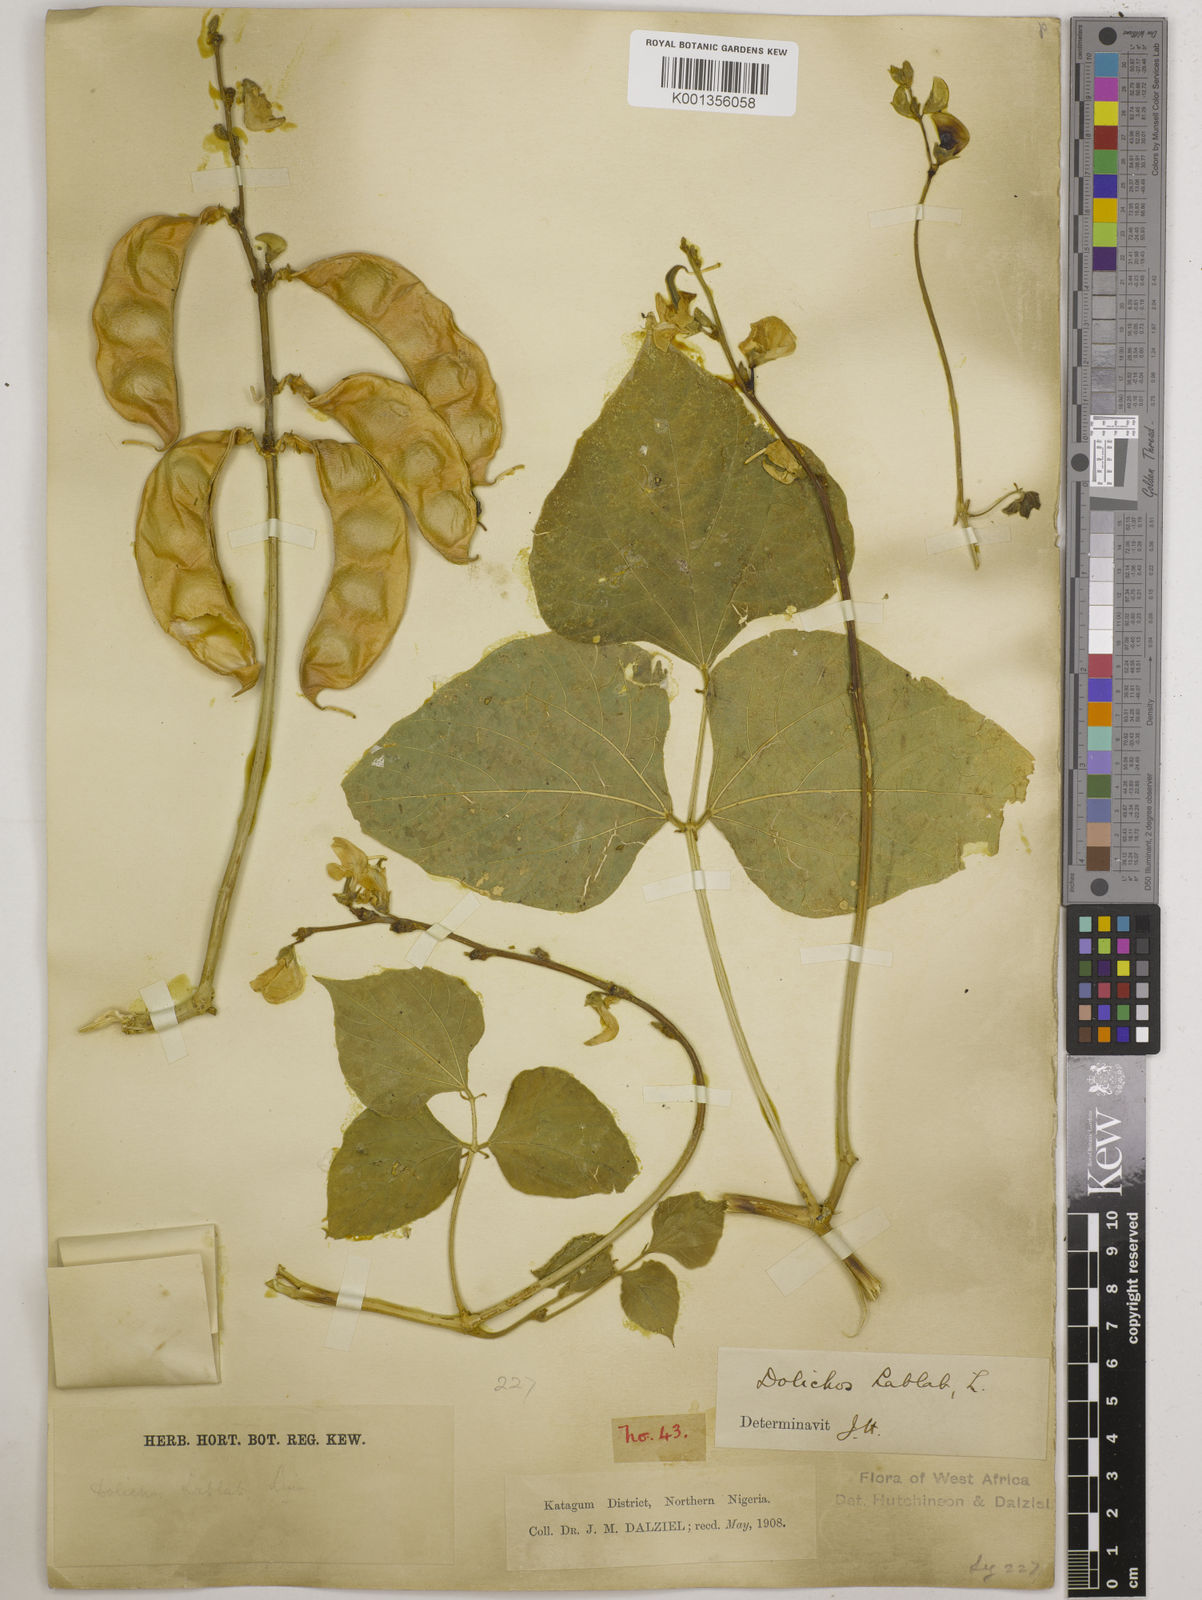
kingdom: Plantae
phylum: Tracheophyta
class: Magnoliopsida
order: Fabales
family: Fabaceae
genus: Lablab
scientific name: Lablab purpureus
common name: Lablab-bean
